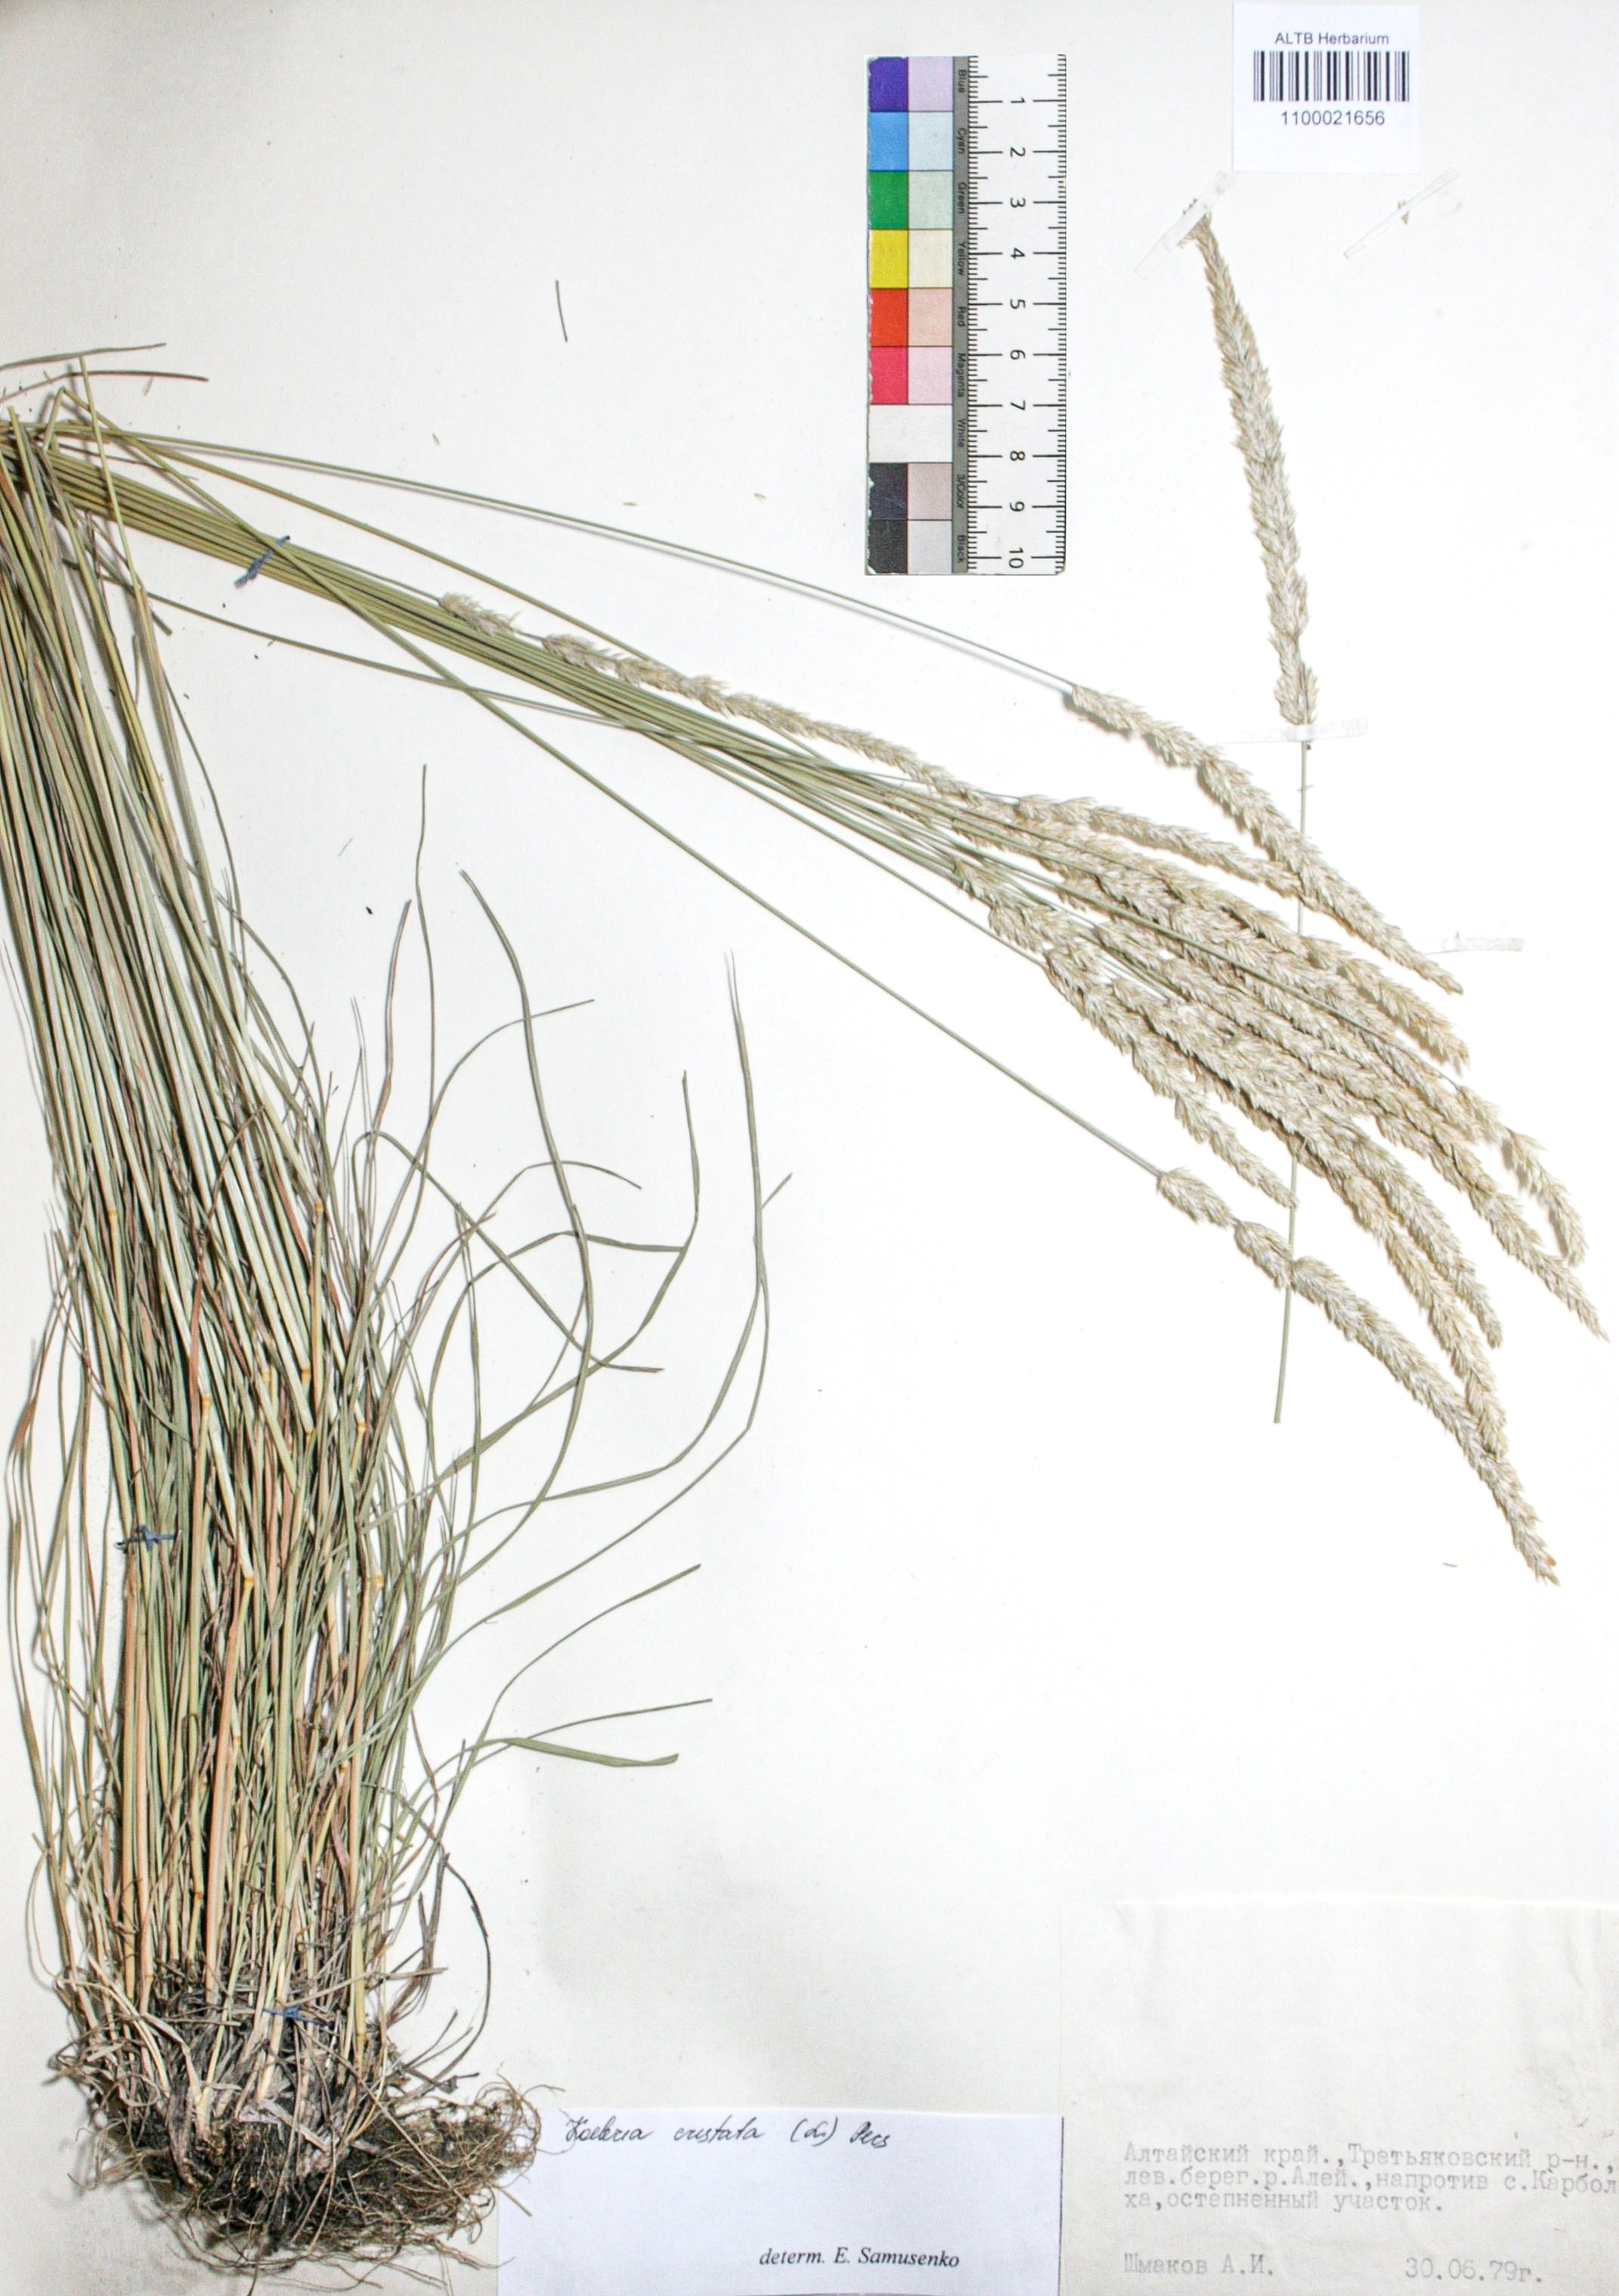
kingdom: Plantae
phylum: Tracheophyta
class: Liliopsida
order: Poales
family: Poaceae
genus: Koeleria
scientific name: Koeleria pyramidata
